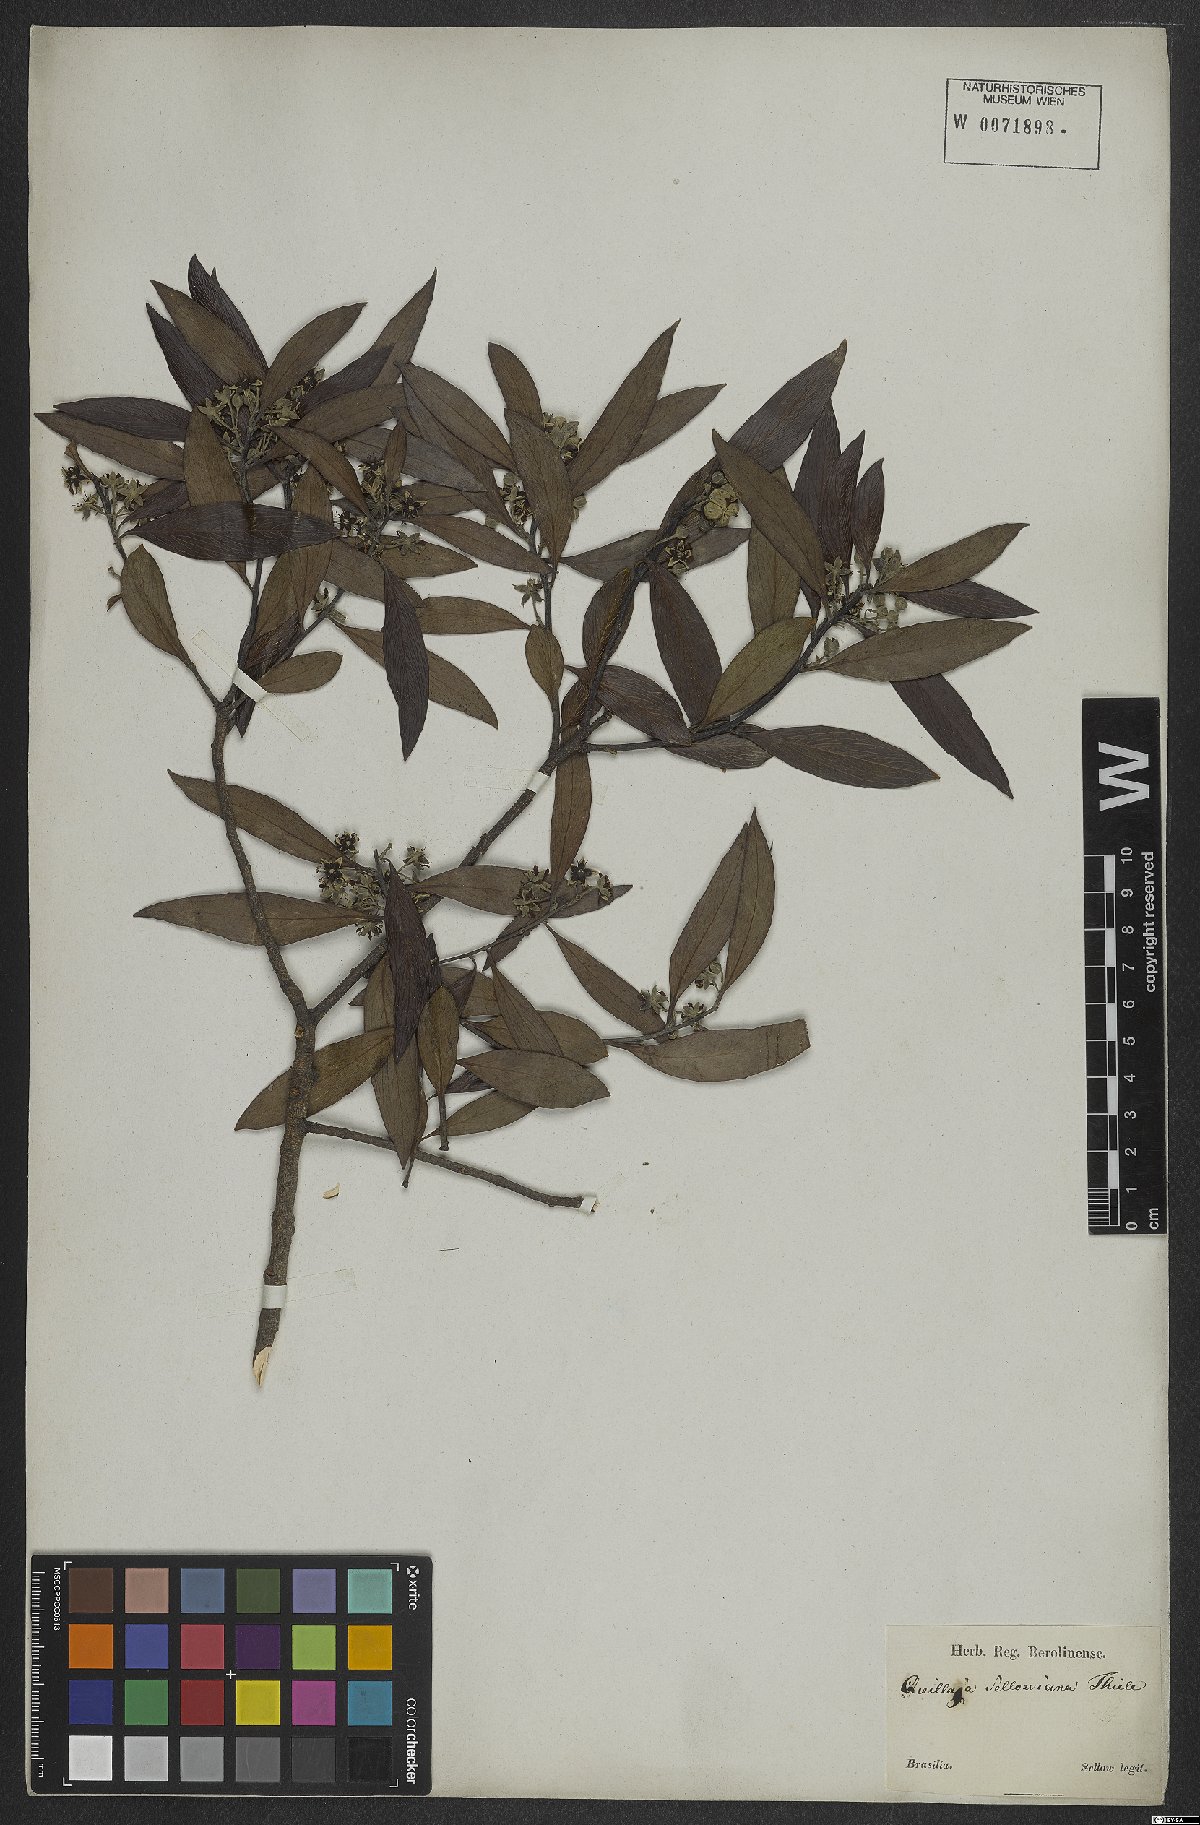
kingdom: Plantae
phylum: Tracheophyta
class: Magnoliopsida
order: Fabales
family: Quillajaceae
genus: Quillaja
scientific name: Quillaja brasiliensis
